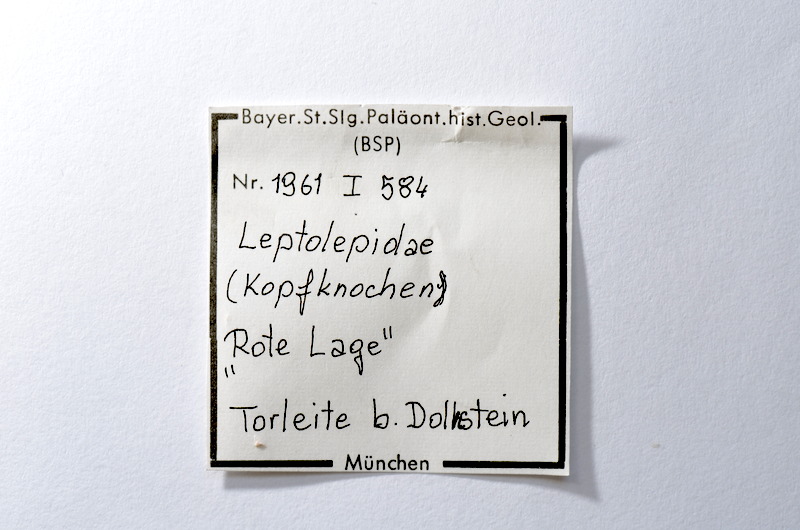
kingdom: Animalia
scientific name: Animalia
